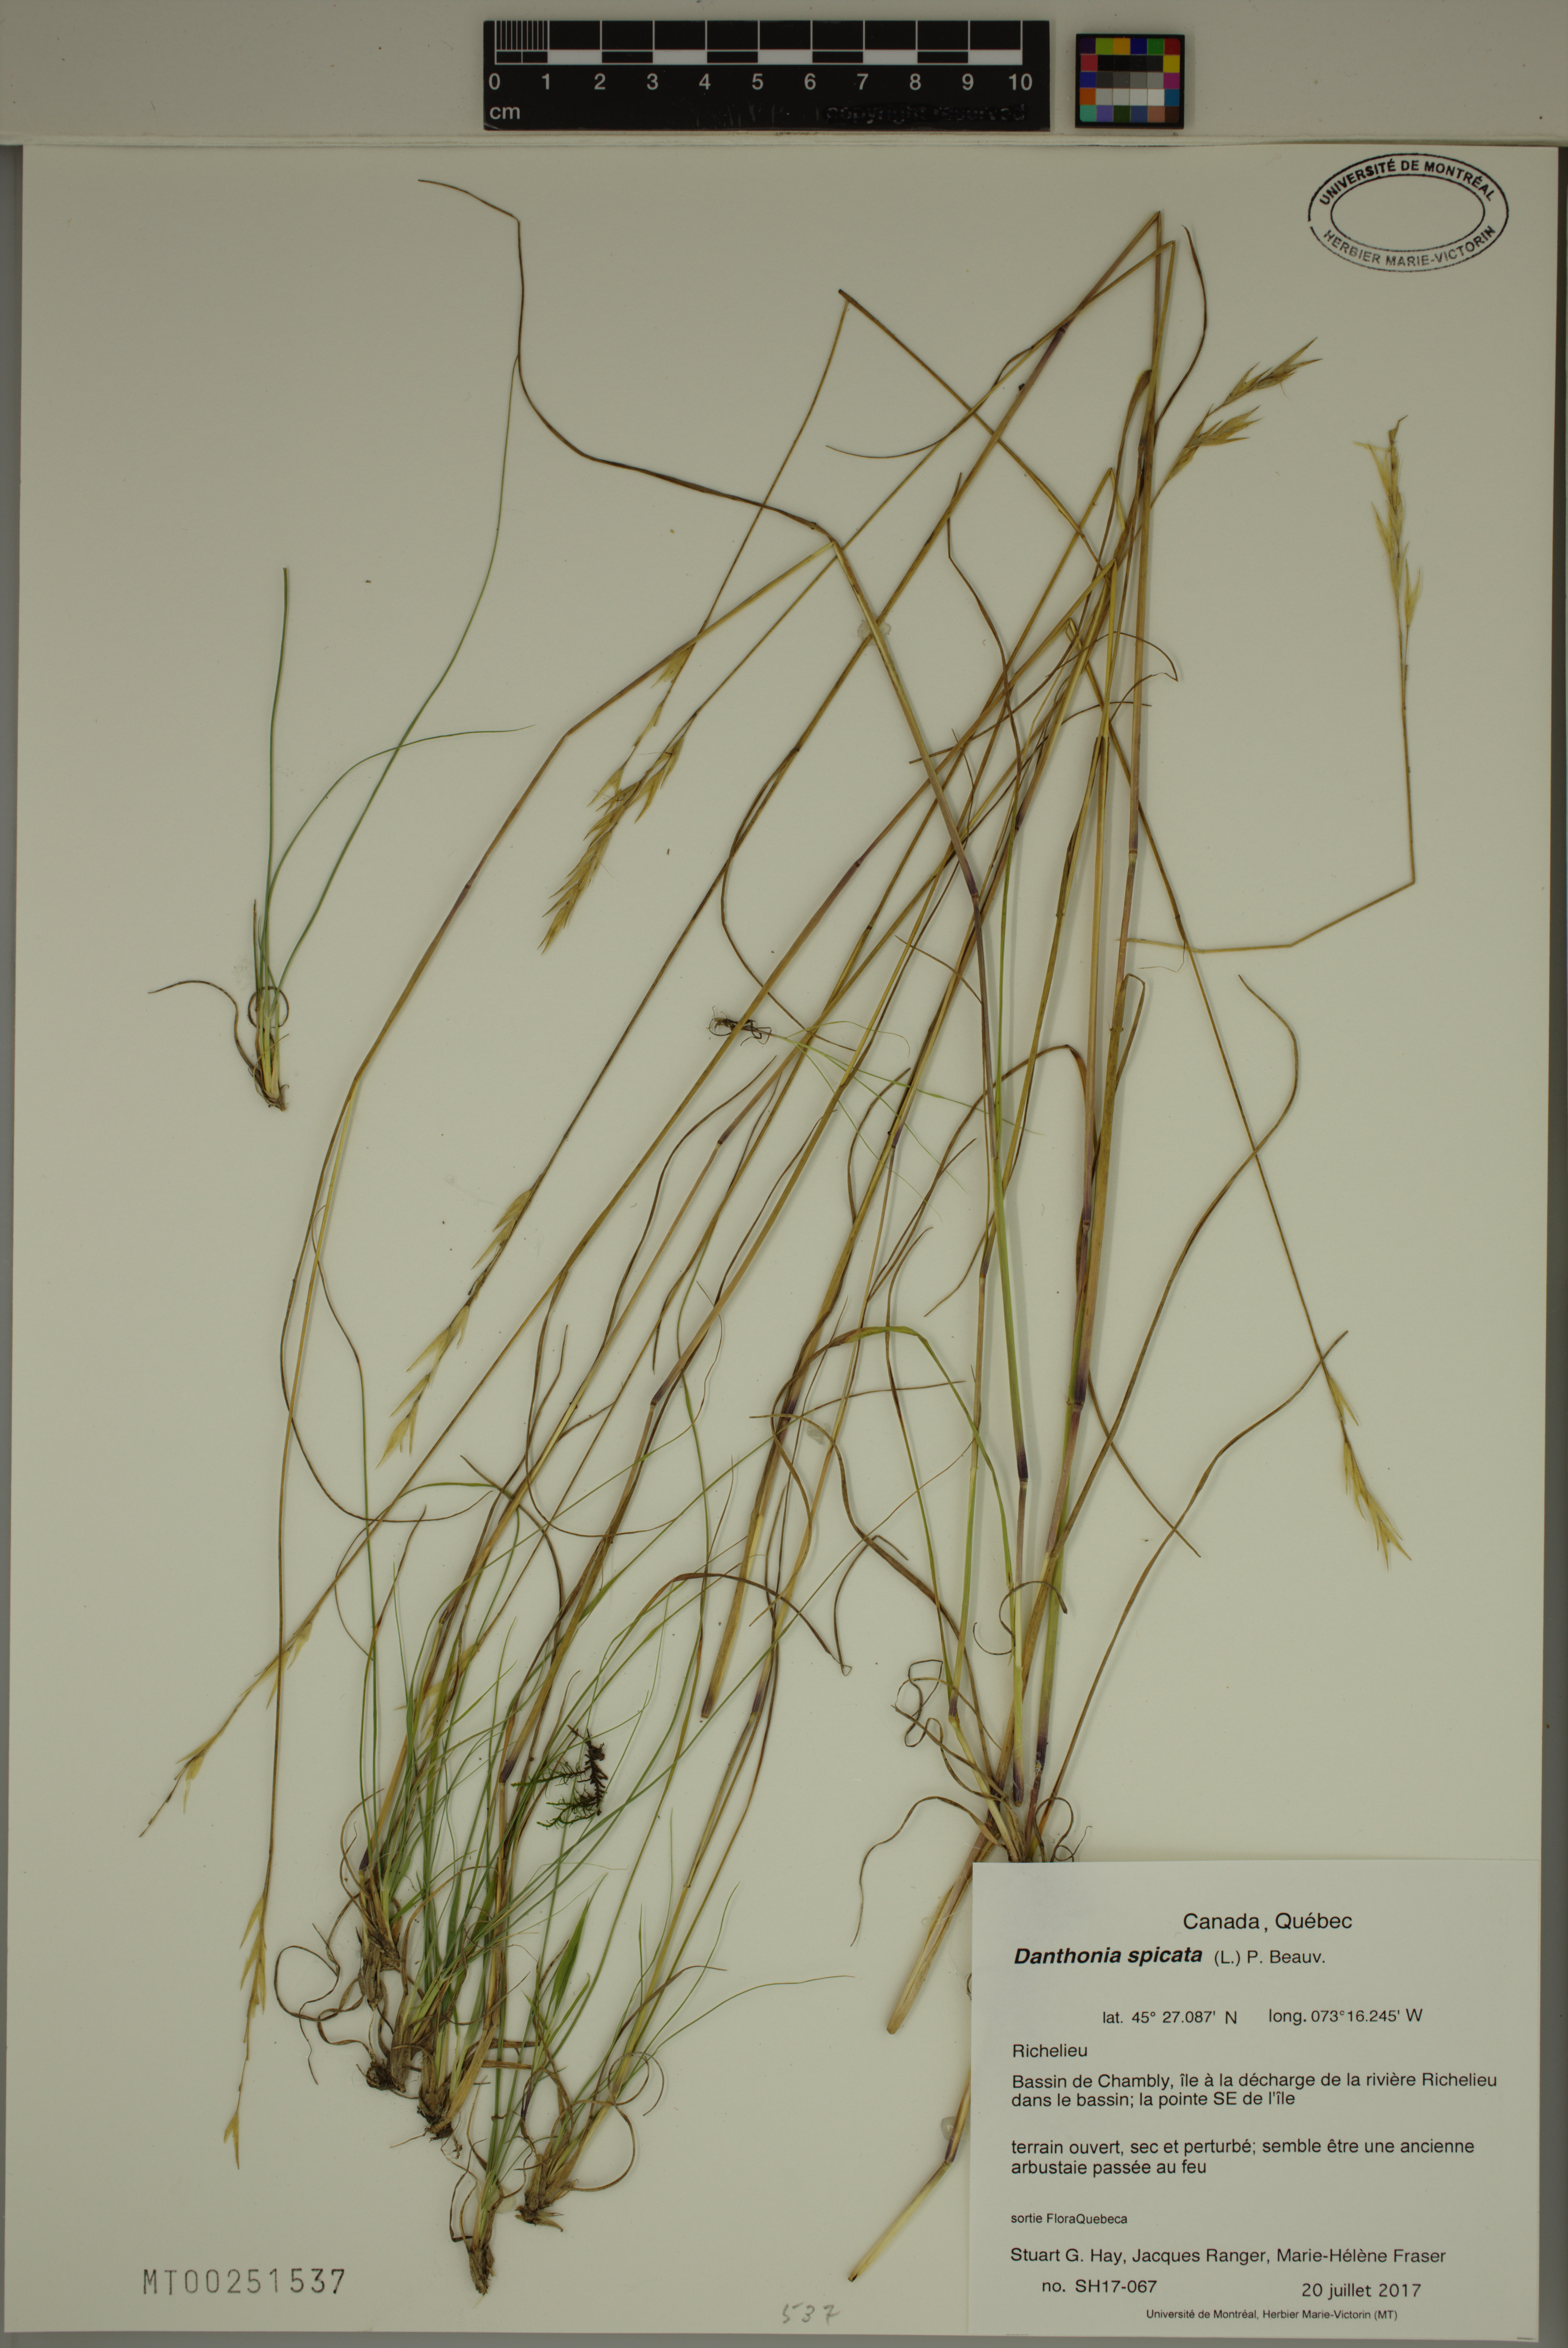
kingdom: Plantae
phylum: Tracheophyta
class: Liliopsida
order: Poales
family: Poaceae
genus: Danthonia
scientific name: Danthonia spicata
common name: Common wild oatgrass
